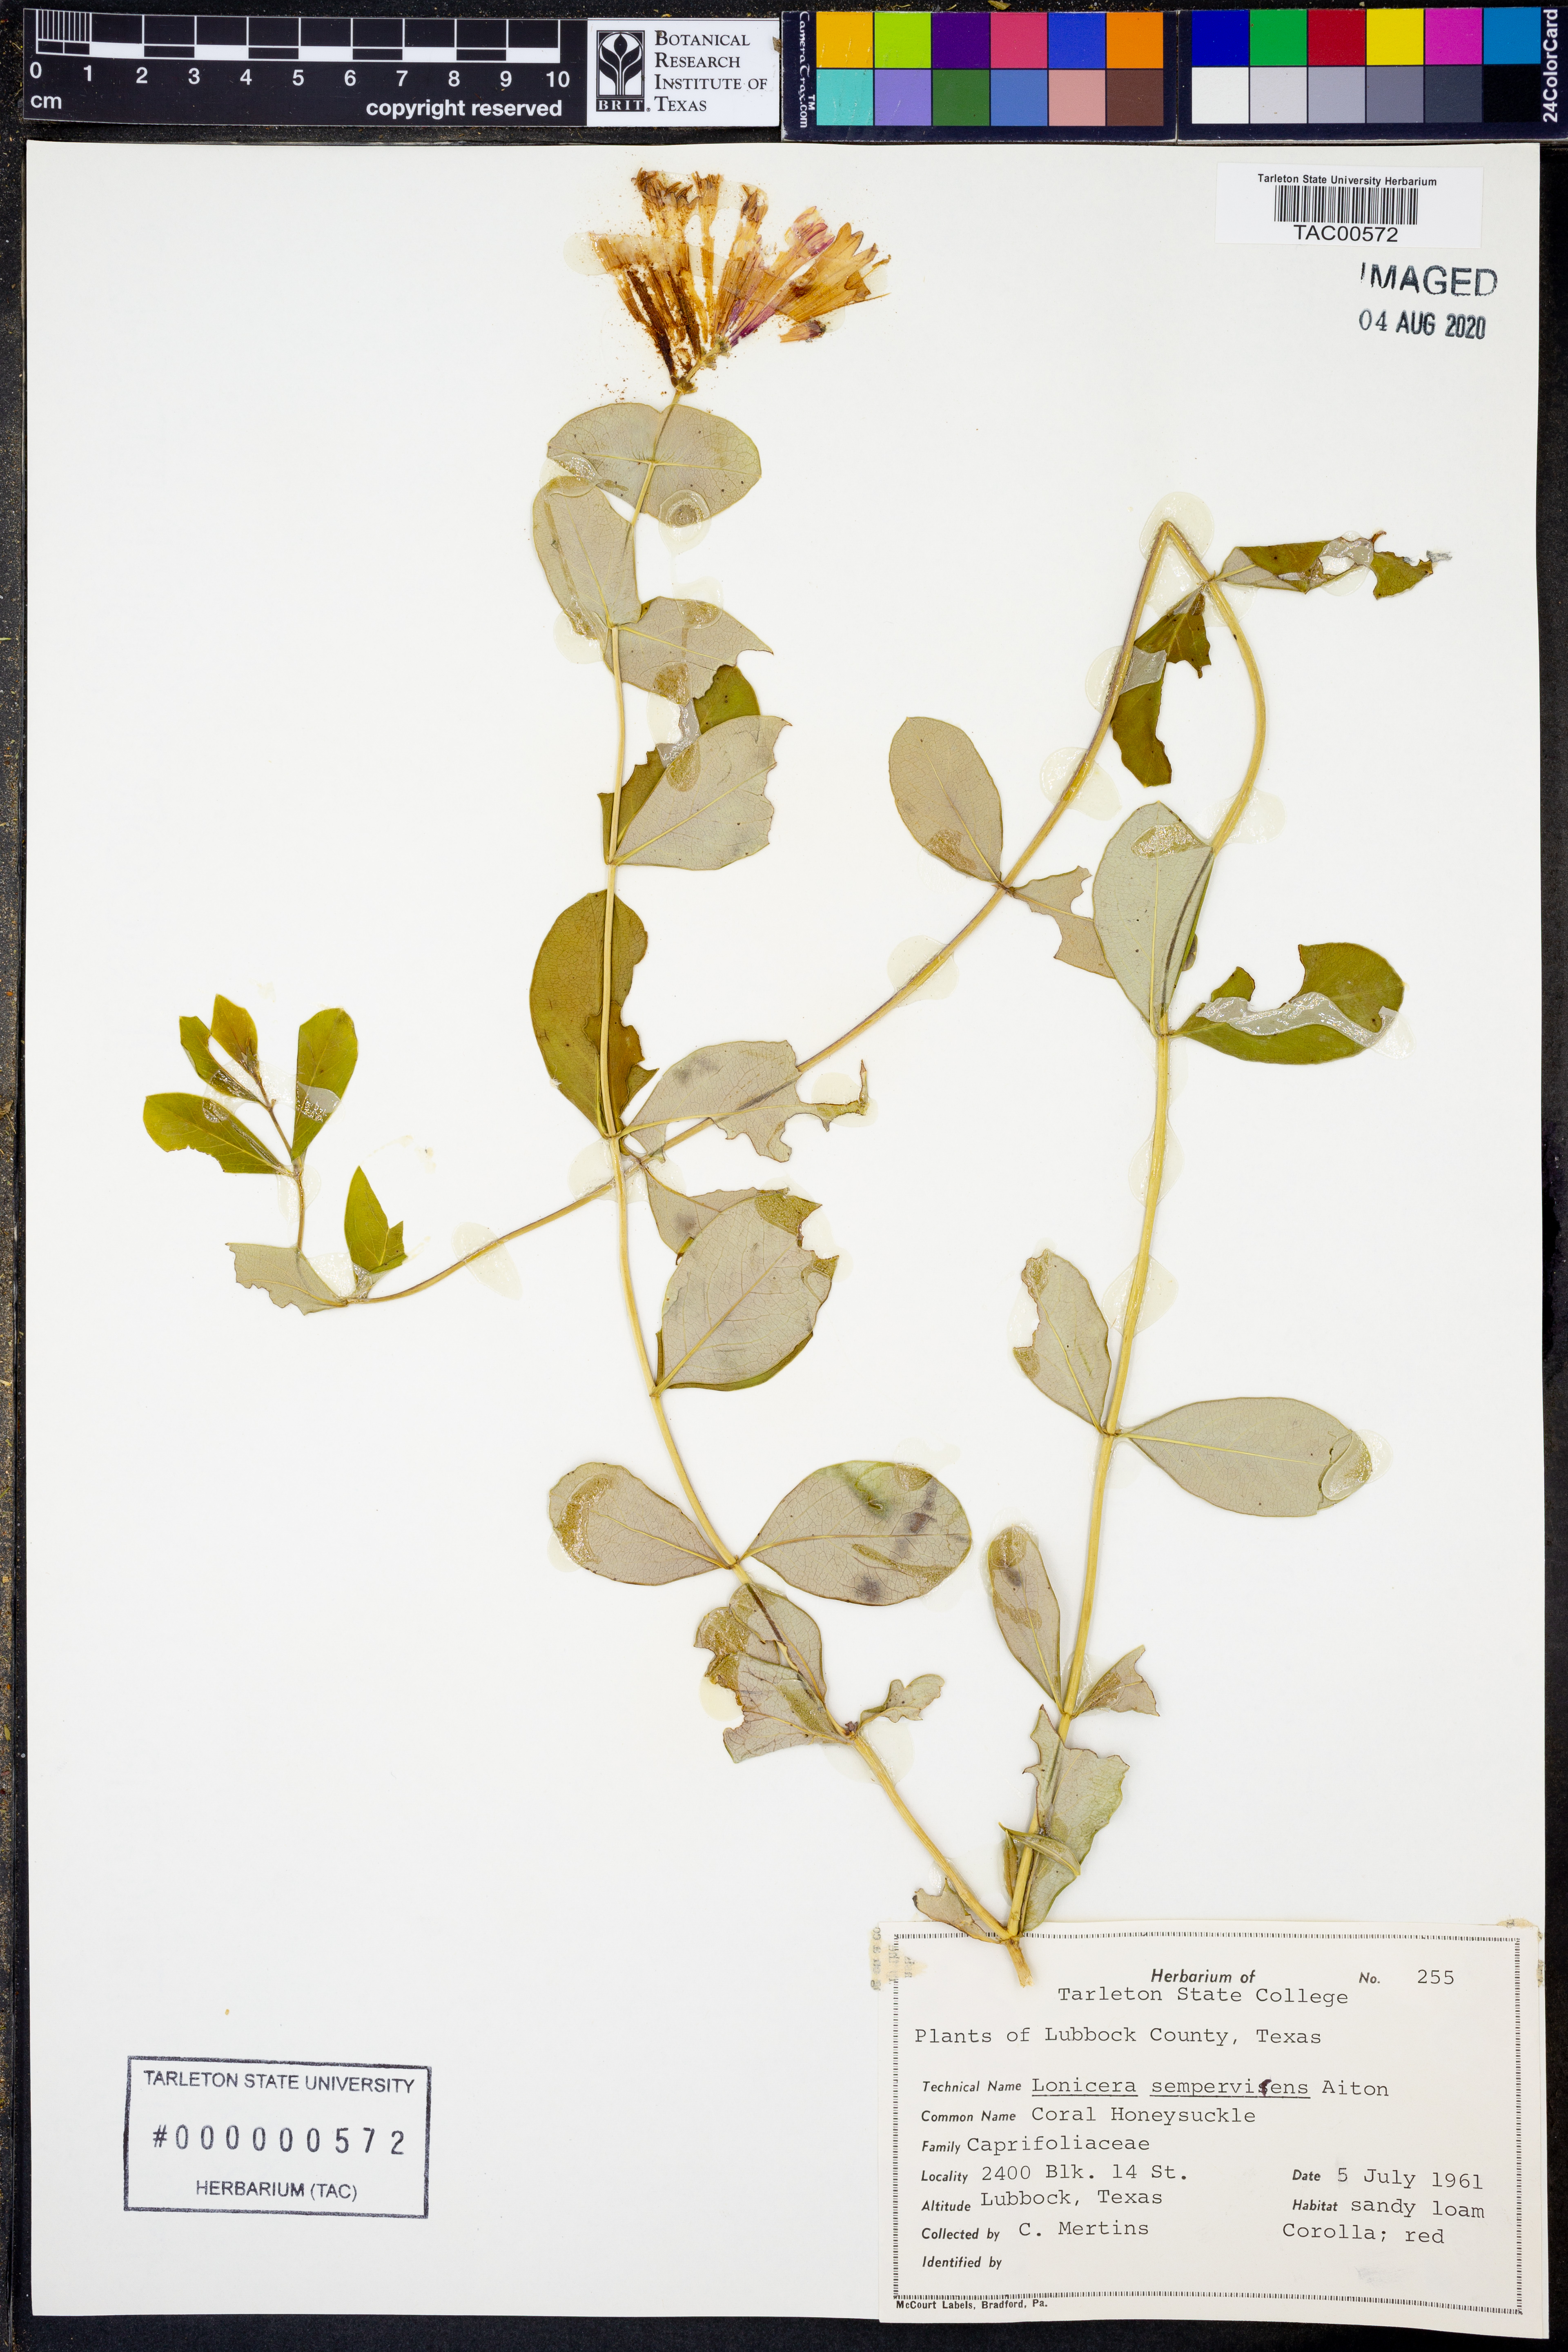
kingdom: Plantae
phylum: Tracheophyta
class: Magnoliopsida
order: Dipsacales
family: Caprifoliaceae
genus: Lonicera
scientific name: Lonicera sempervirens
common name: Coral honeysuckle
